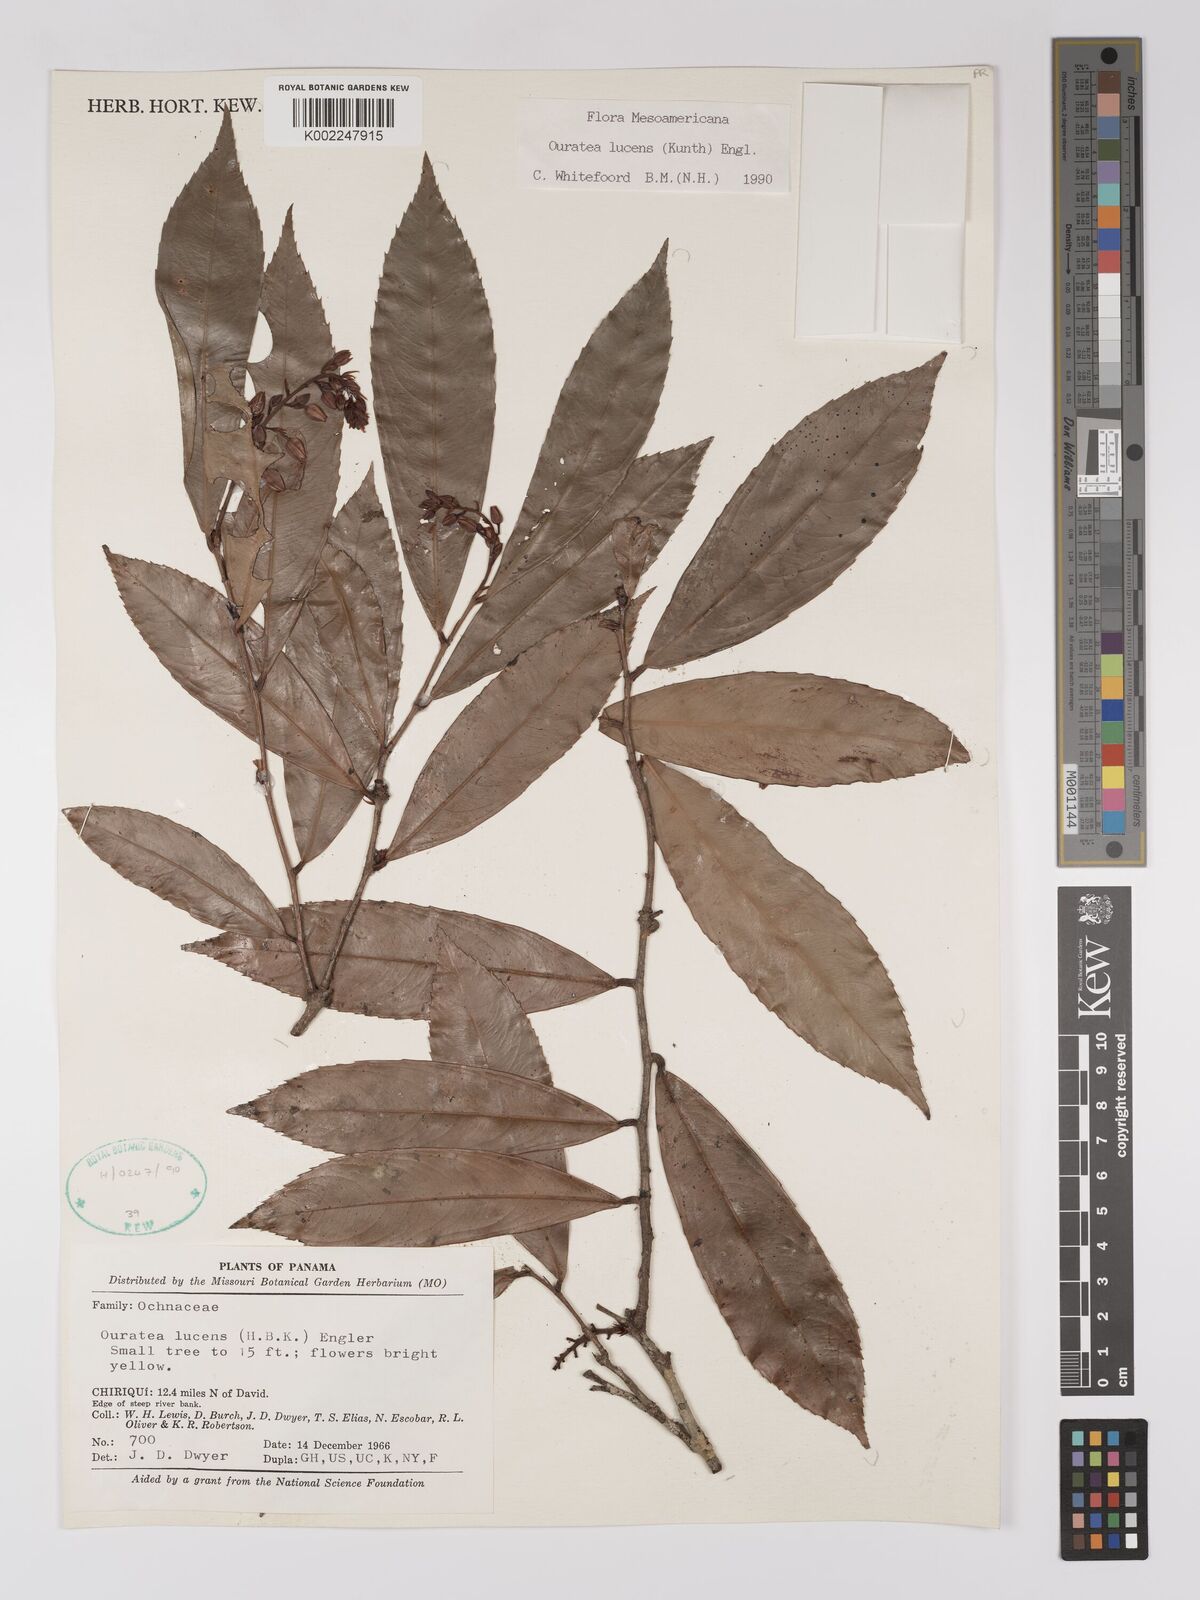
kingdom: Plantae
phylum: Tracheophyta
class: Magnoliopsida
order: Malpighiales
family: Ochnaceae
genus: Ouratea
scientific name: Ouratea lucens
